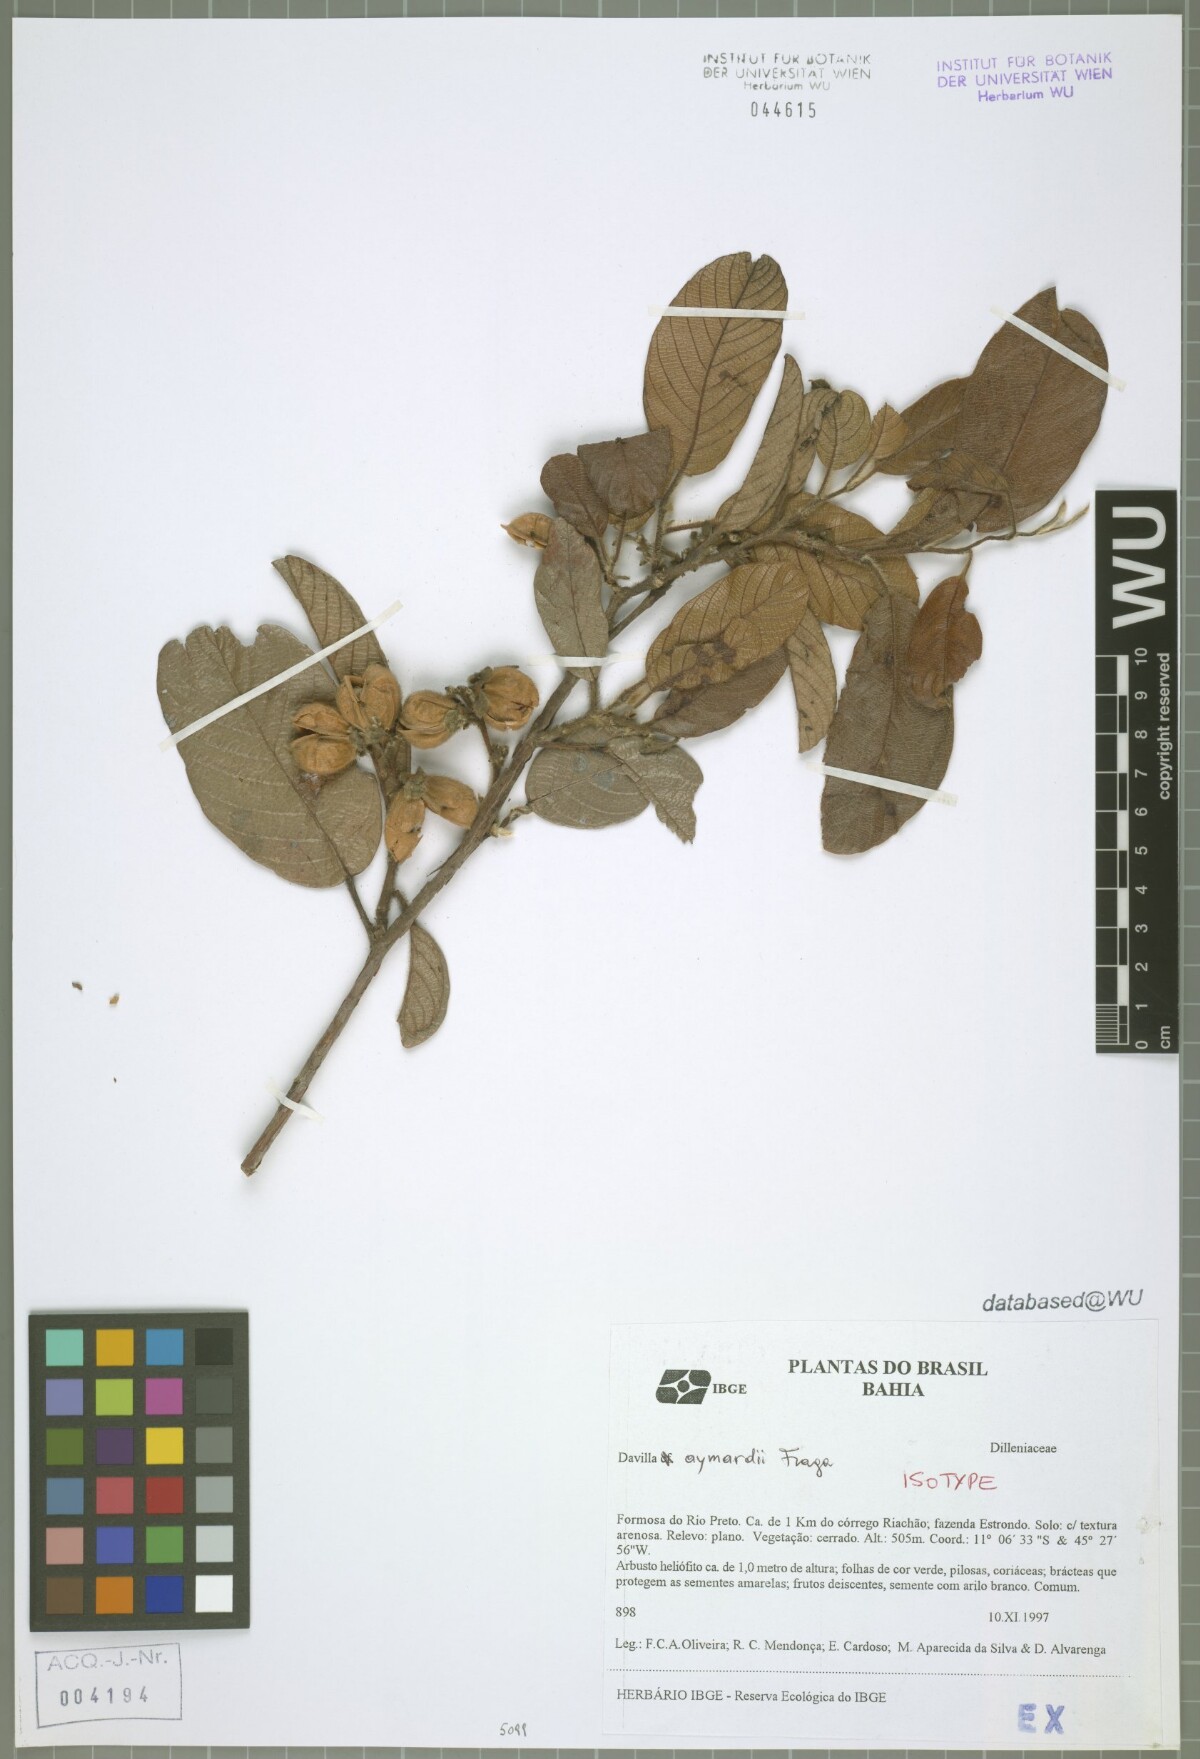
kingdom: Plantae
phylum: Tracheophyta
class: Magnoliopsida
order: Dilleniales
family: Dilleniaceae
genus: Davilla
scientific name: Davilla aymardii
